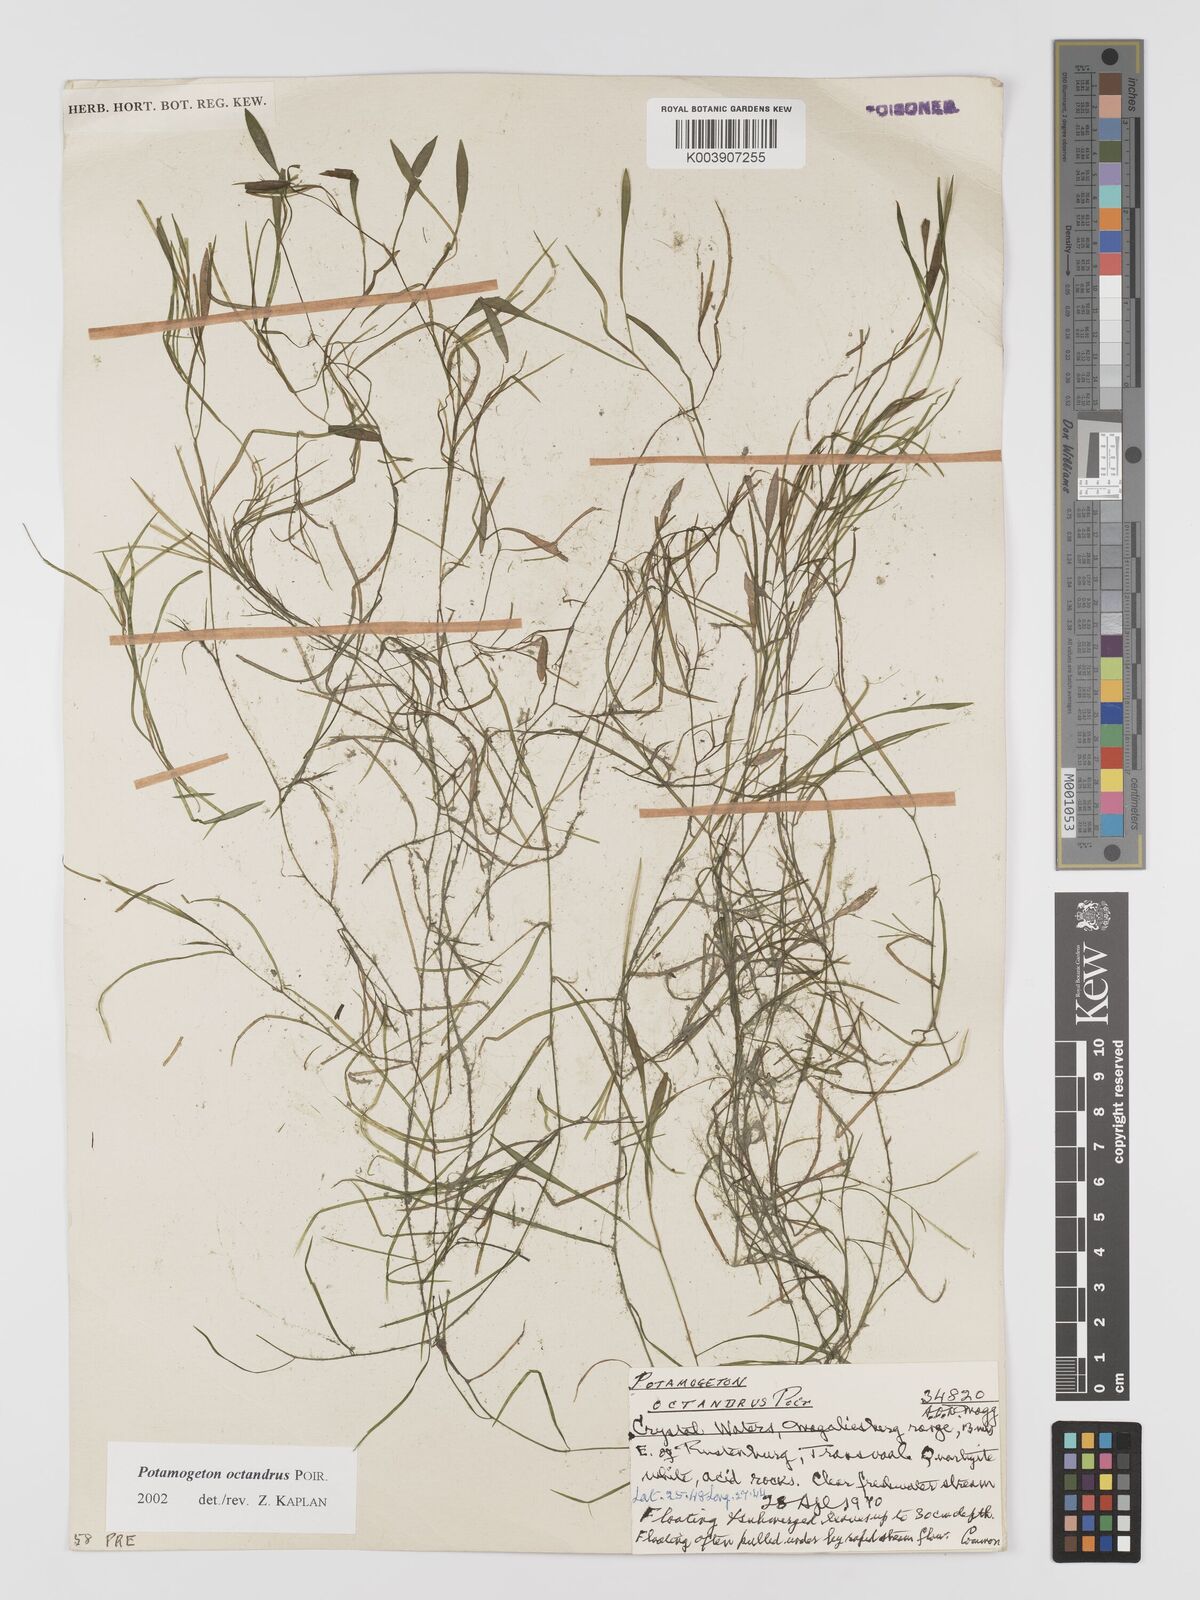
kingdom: Plantae
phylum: Tracheophyta
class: Liliopsida
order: Alismatales
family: Potamogetonaceae
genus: Potamogeton
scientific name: Potamogeton octandrus
